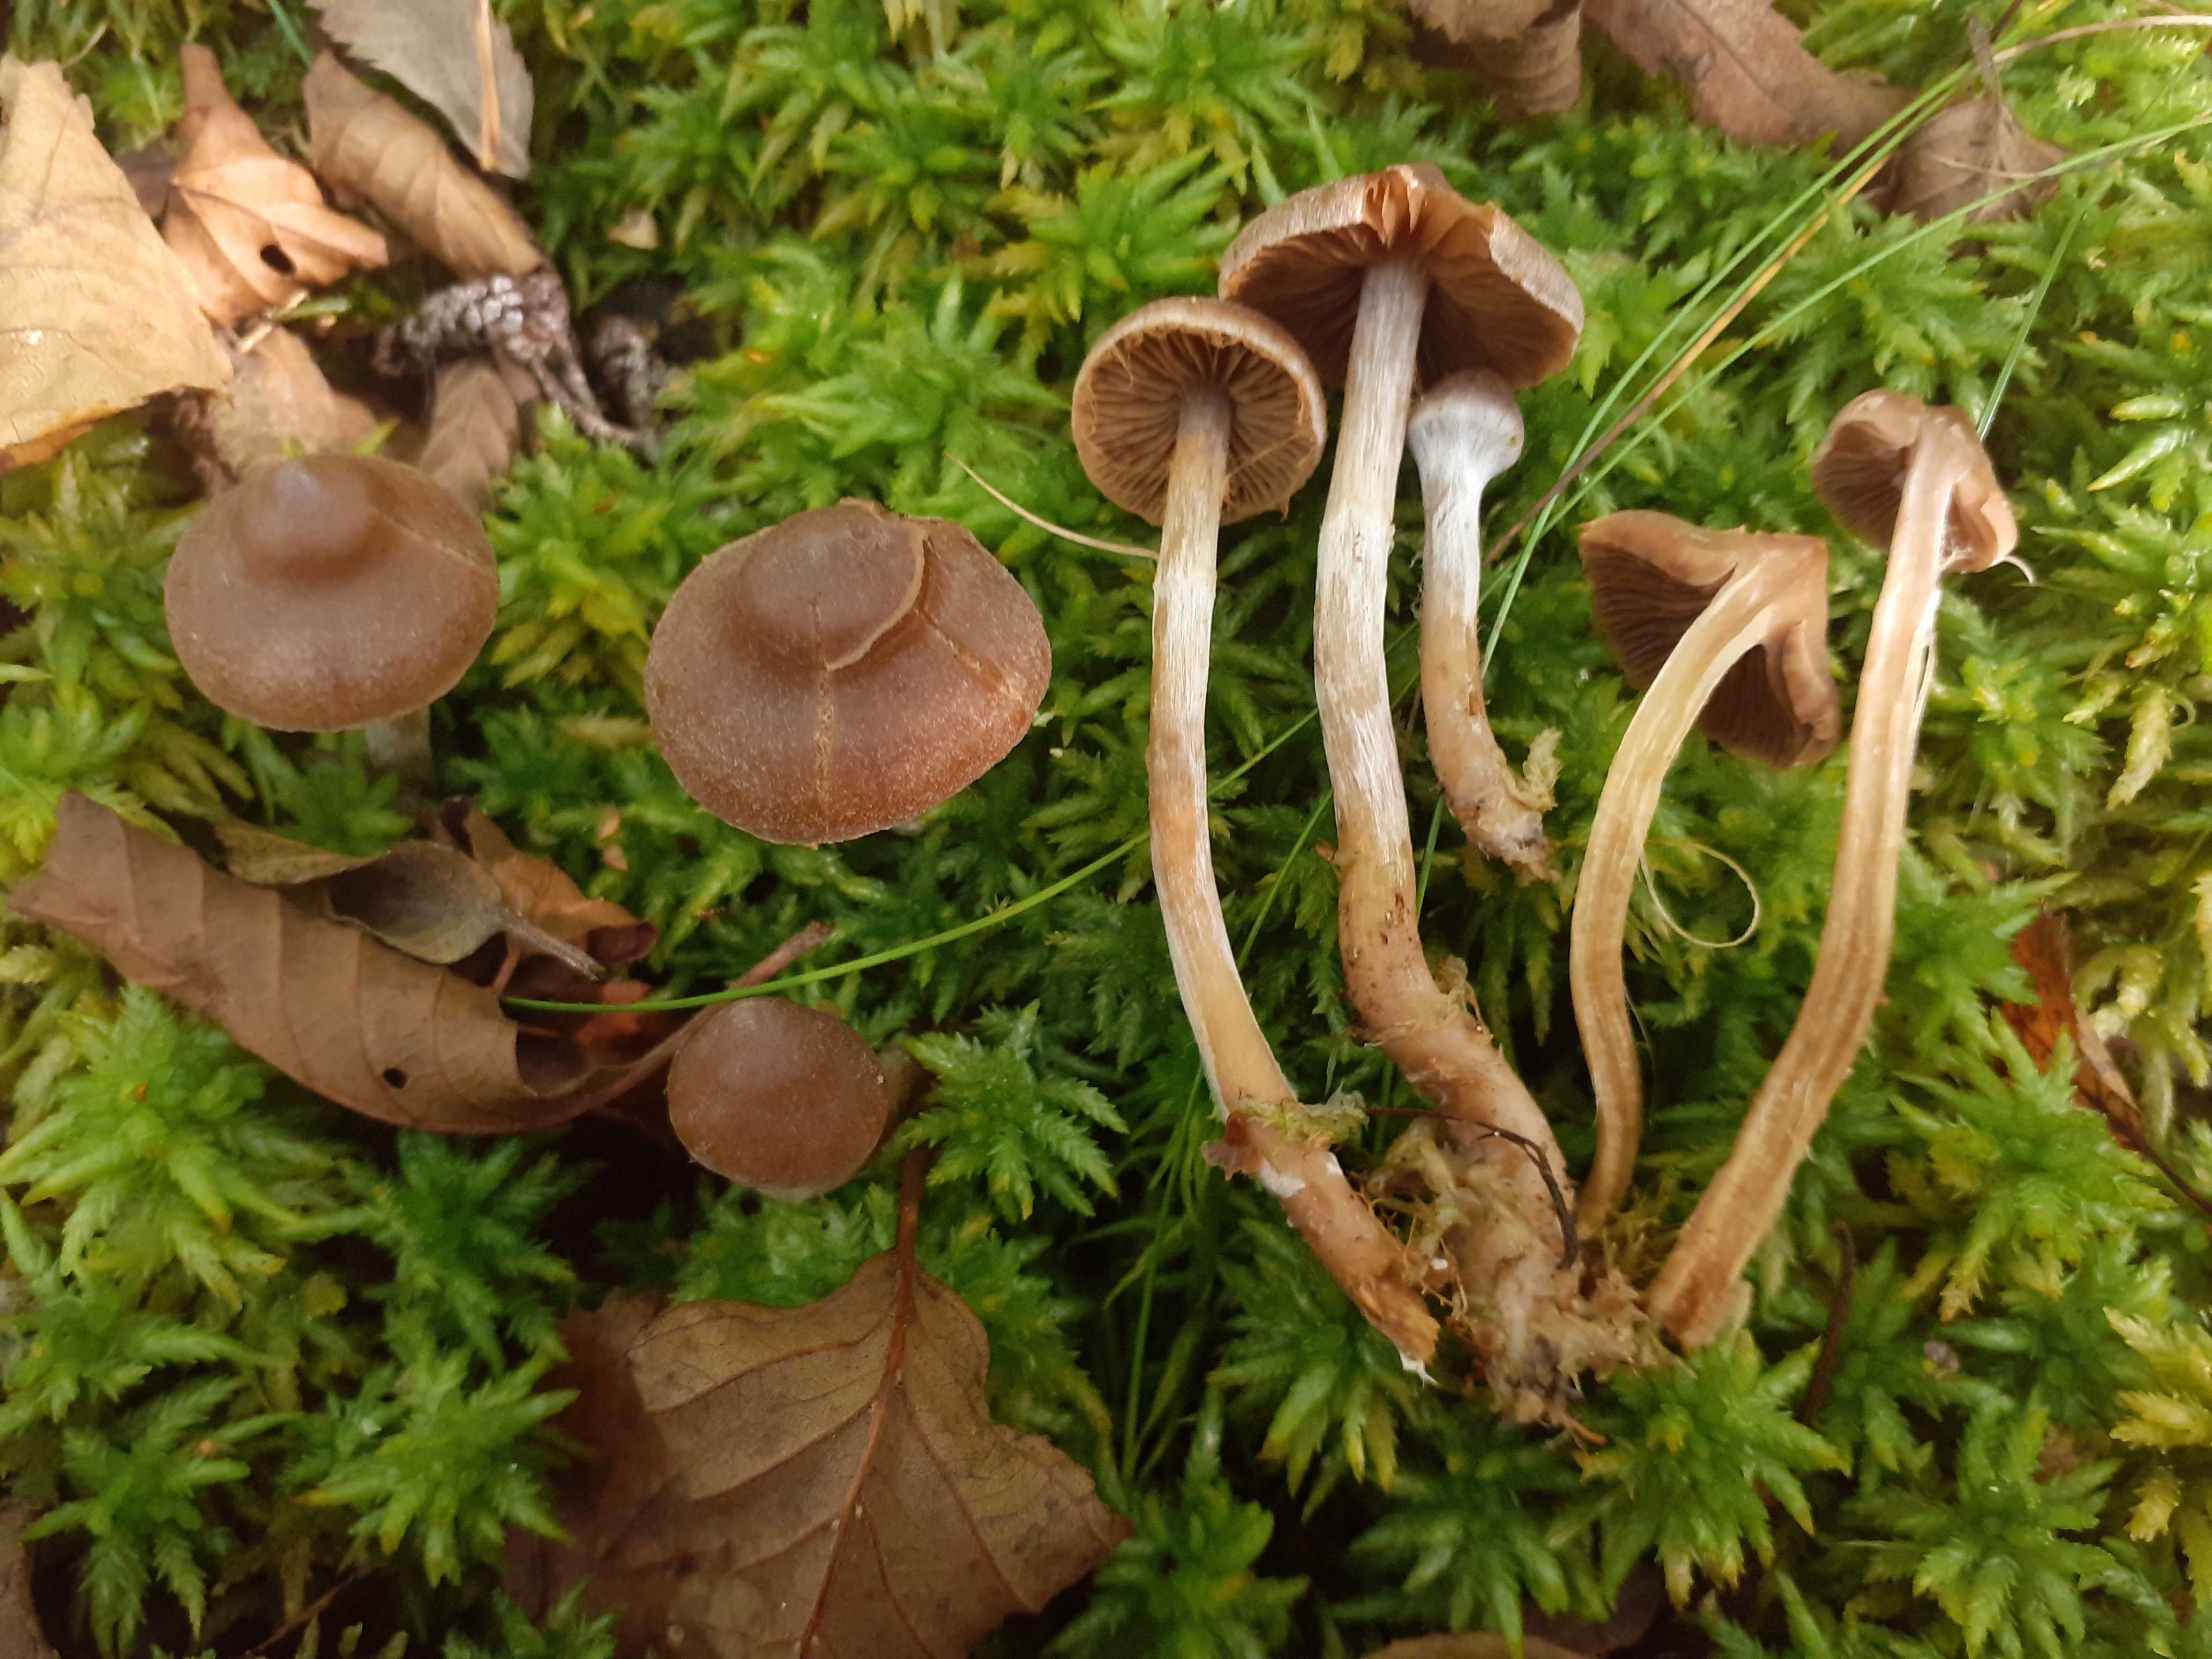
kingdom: Fungi
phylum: Basidiomycota
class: Agaricomycetes
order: Agaricales
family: Cortinariaceae
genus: Cortinarius
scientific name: Cortinarius comptulus
